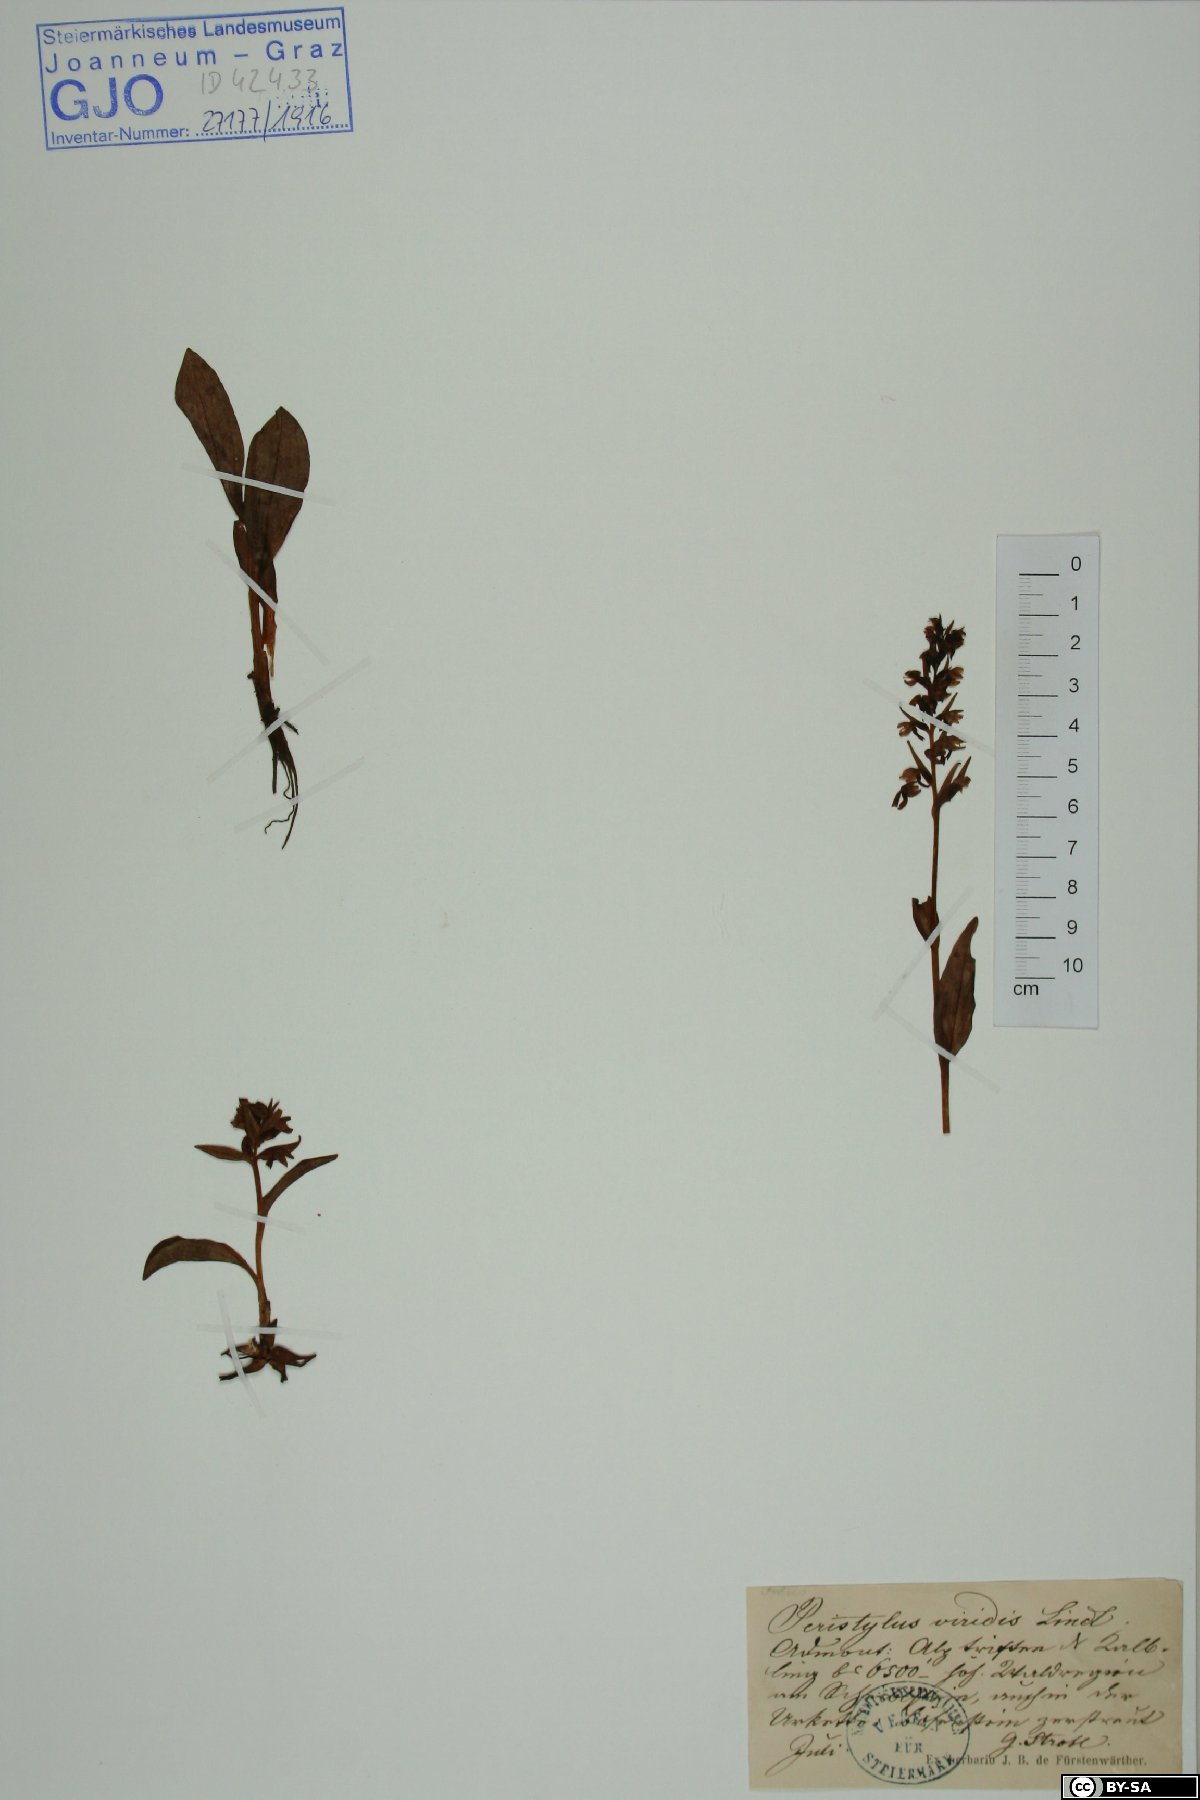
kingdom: Plantae
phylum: Tracheophyta
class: Liliopsida
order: Asparagales
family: Orchidaceae
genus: Dactylorhiza
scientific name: Dactylorhiza viridis
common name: Longbract frog orchid
